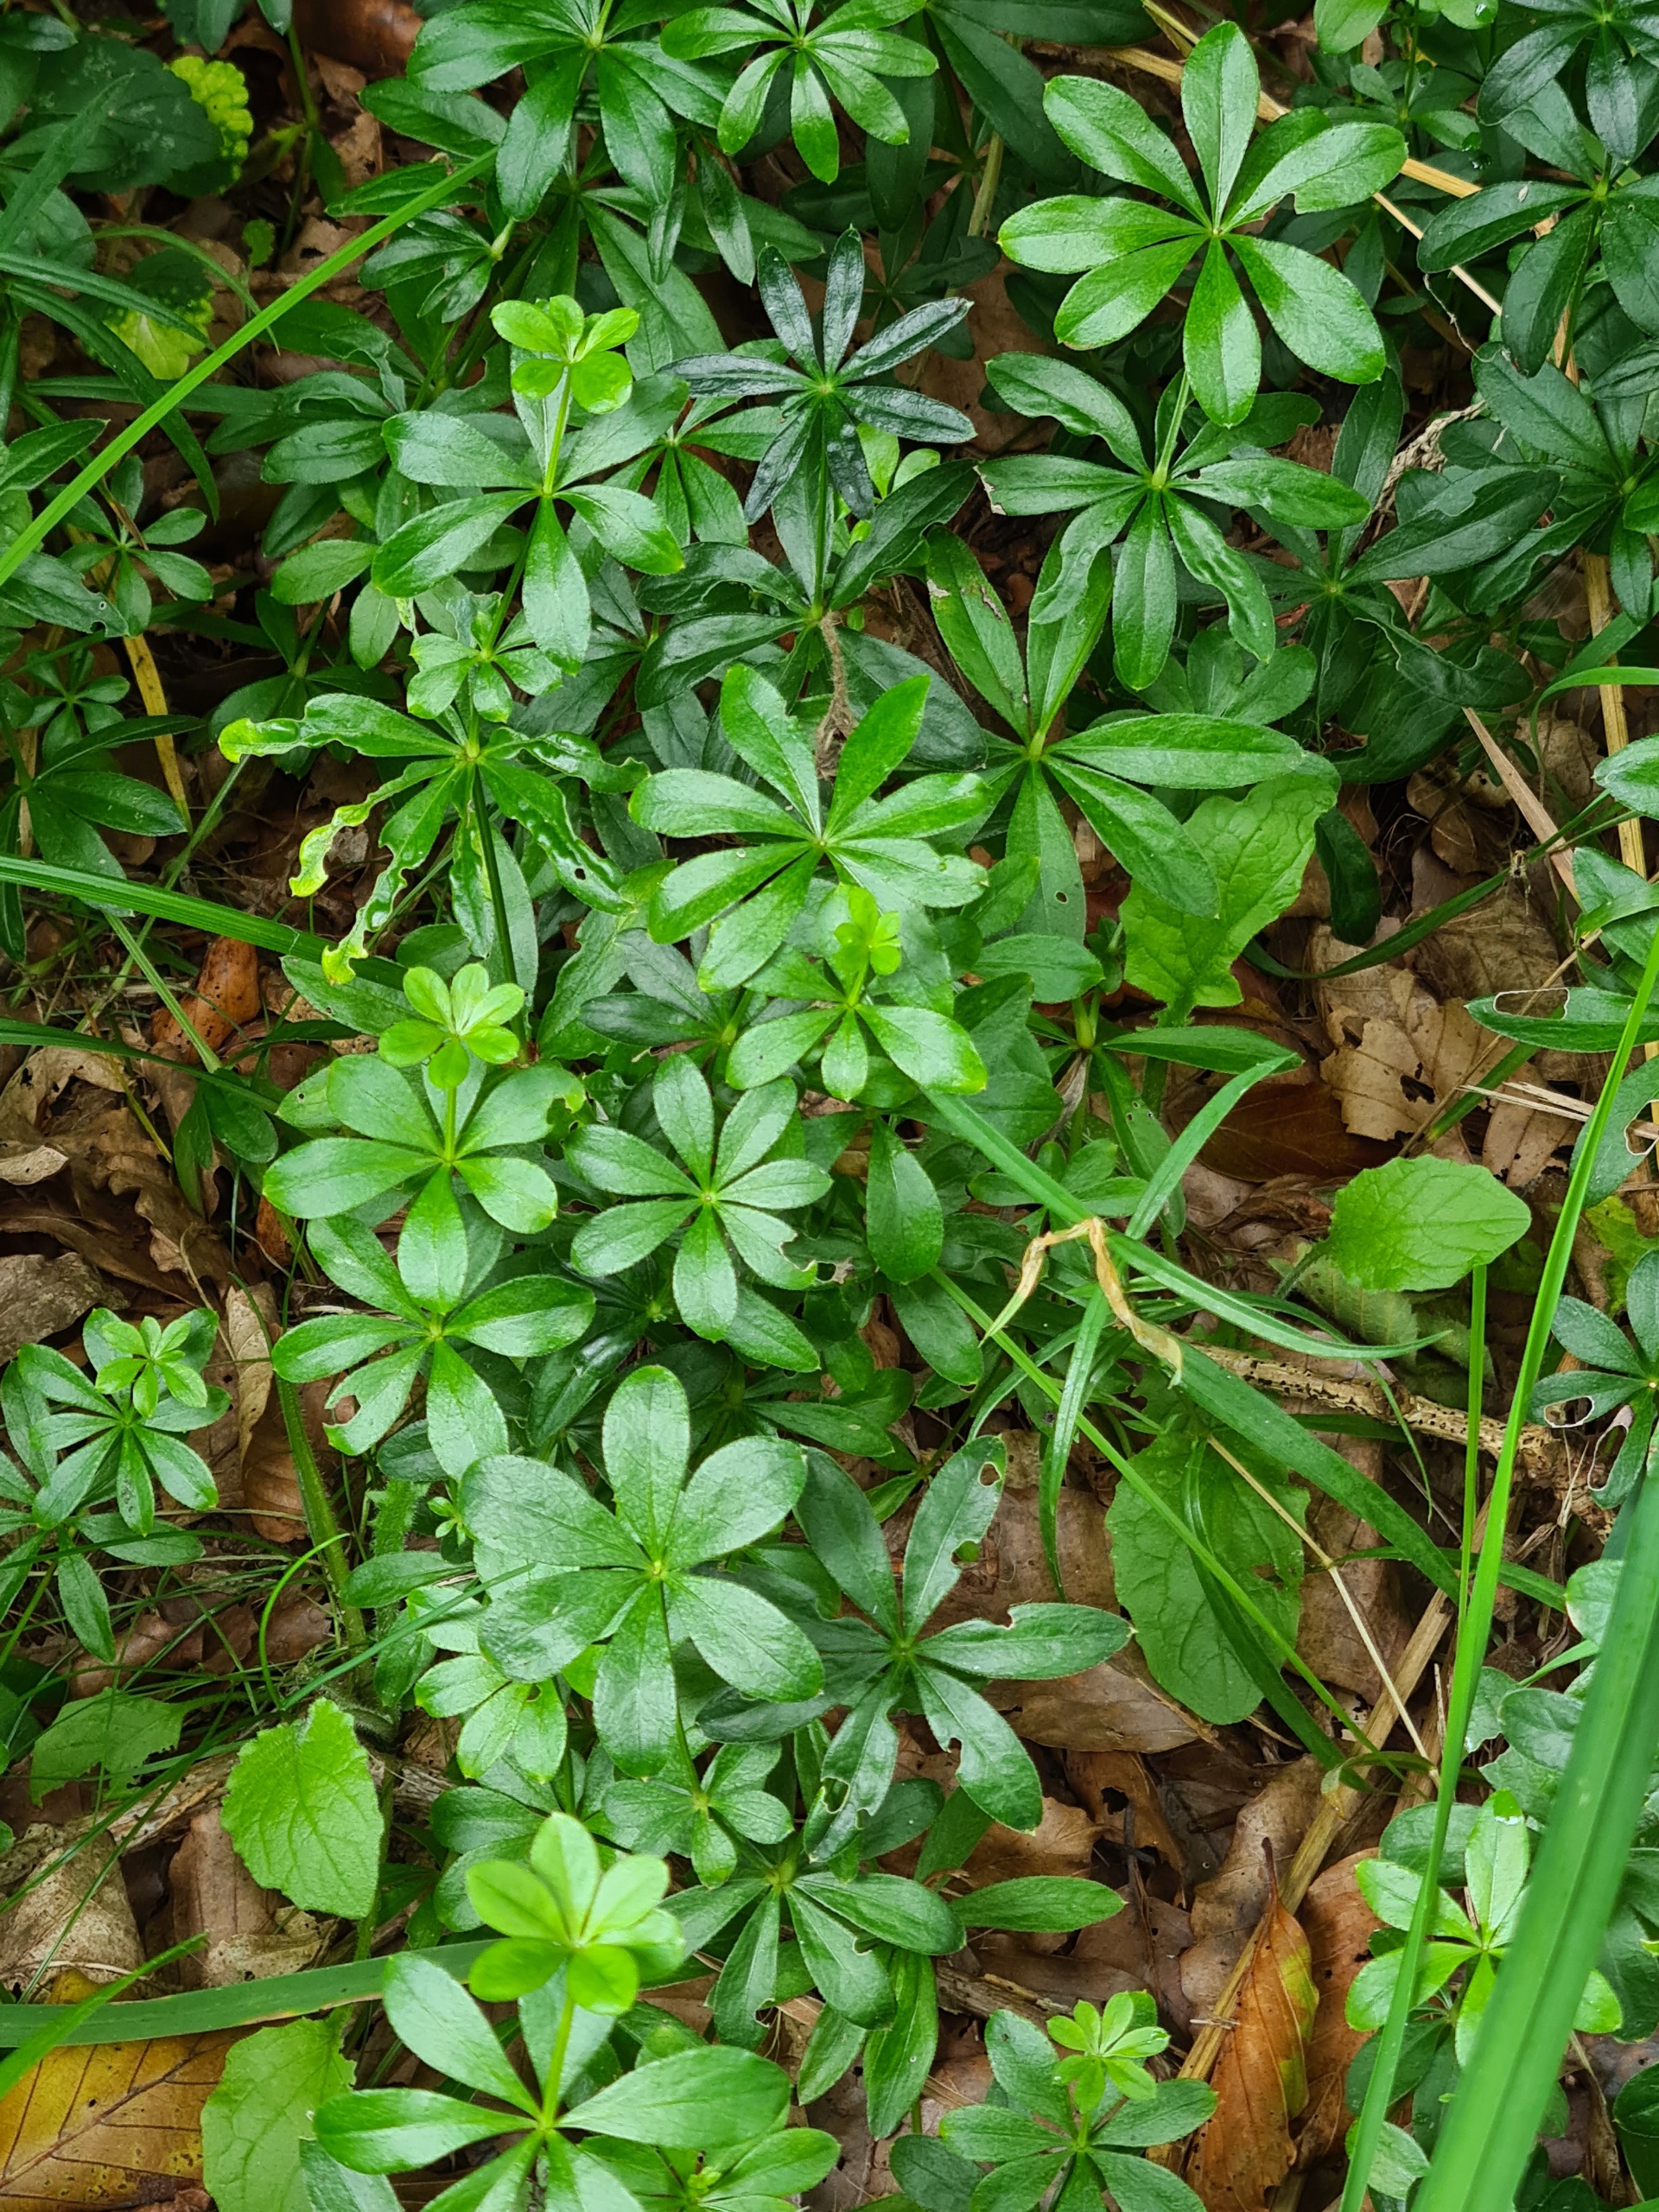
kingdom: Plantae
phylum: Tracheophyta
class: Magnoliopsida
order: Gentianales
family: Rubiaceae
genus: Galium
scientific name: Galium odoratum
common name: Skovmærke
